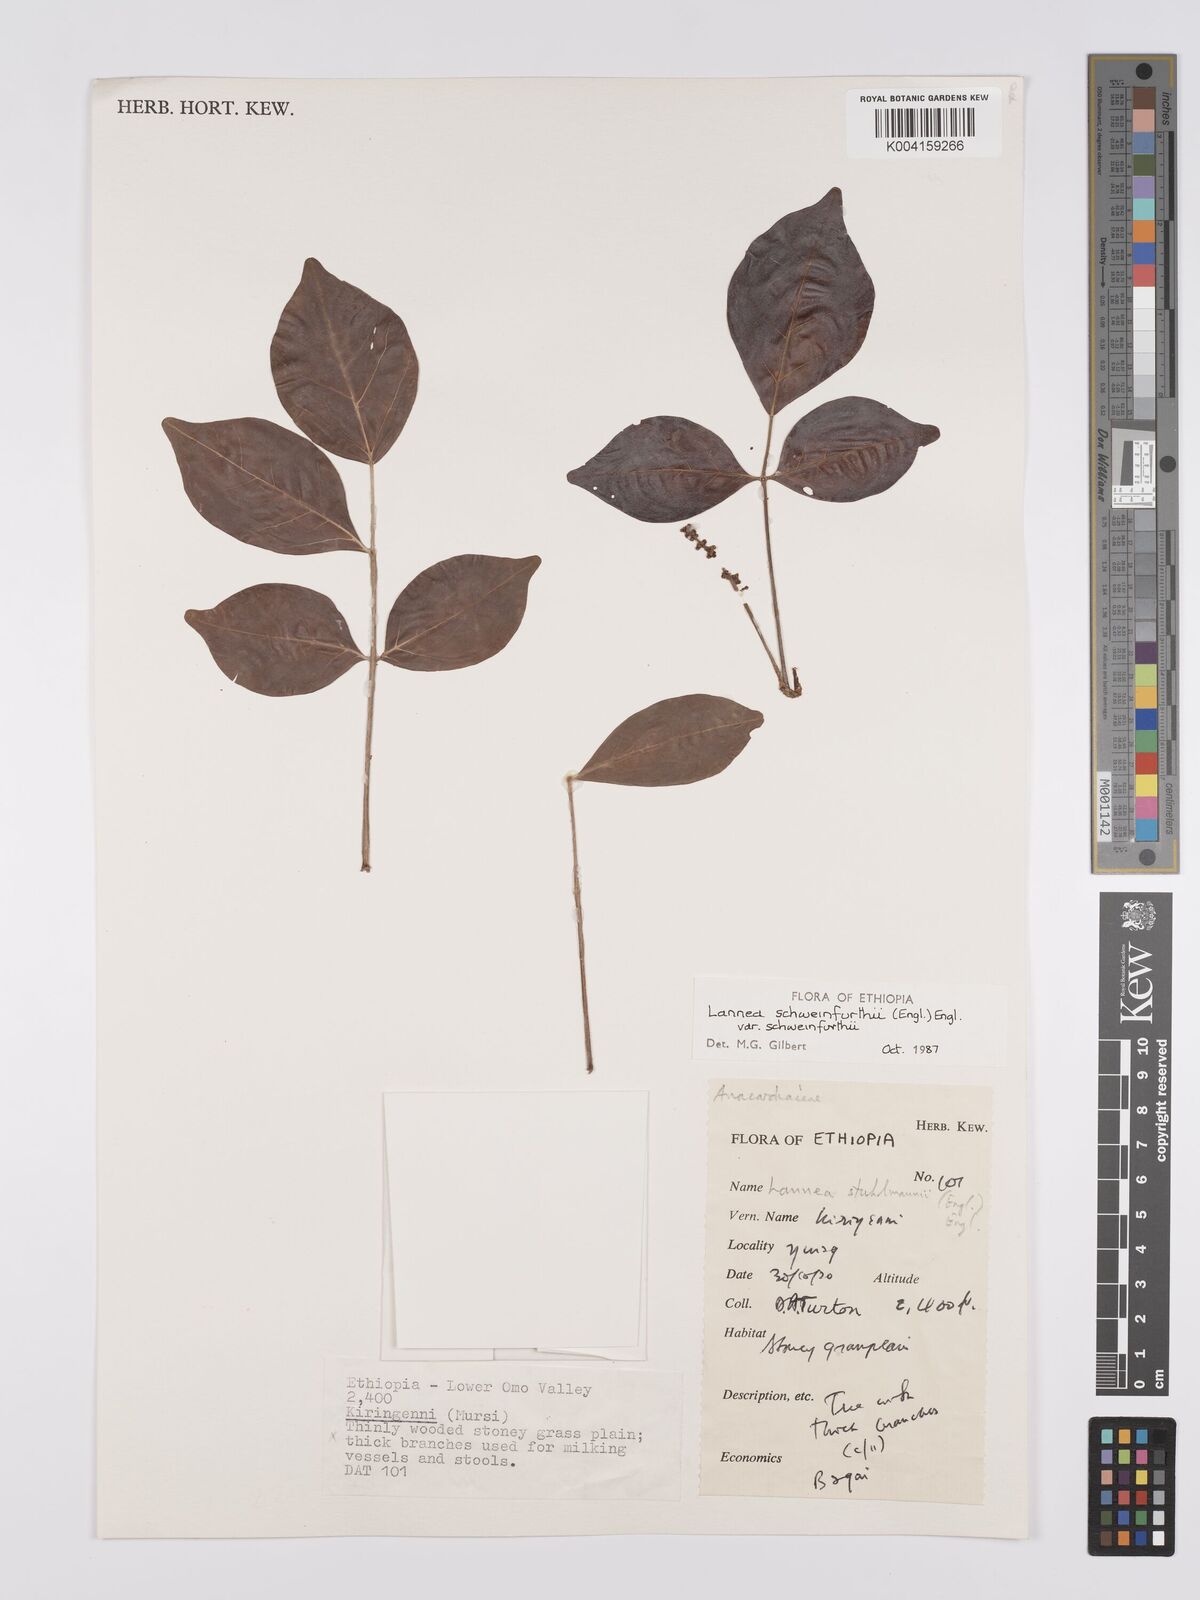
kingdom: Plantae
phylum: Tracheophyta
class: Magnoliopsida
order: Sapindales
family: Anacardiaceae
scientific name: Anacardiaceae
